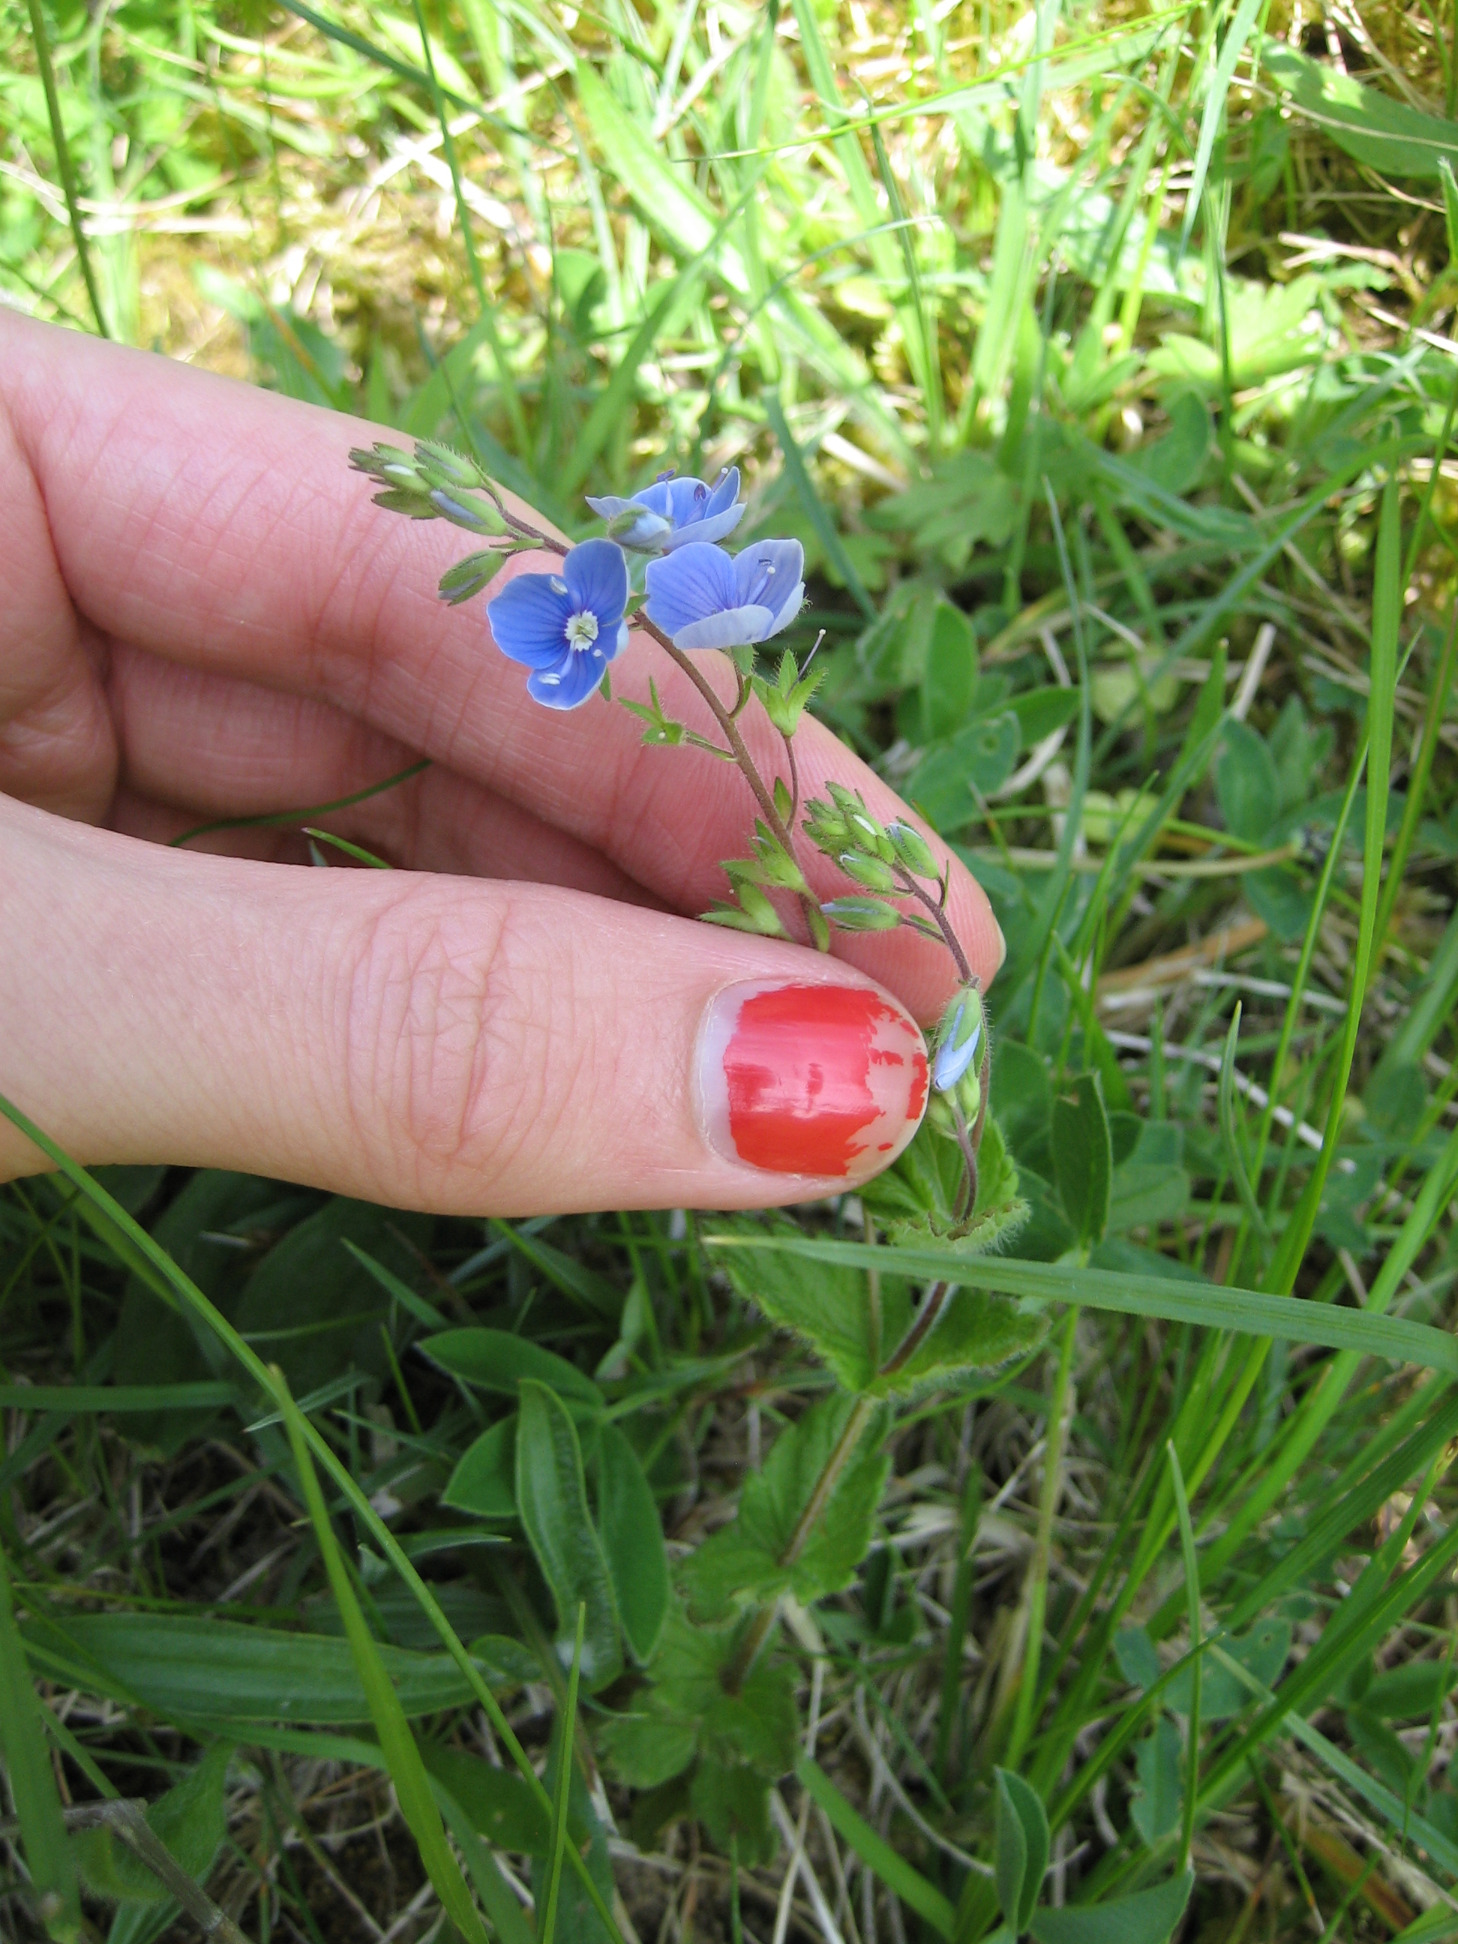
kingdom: Plantae
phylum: Tracheophyta
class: Magnoliopsida
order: Lamiales
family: Plantaginaceae
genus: Veronica
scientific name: Veronica chamaedrys
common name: Tveskægget ærenpris
